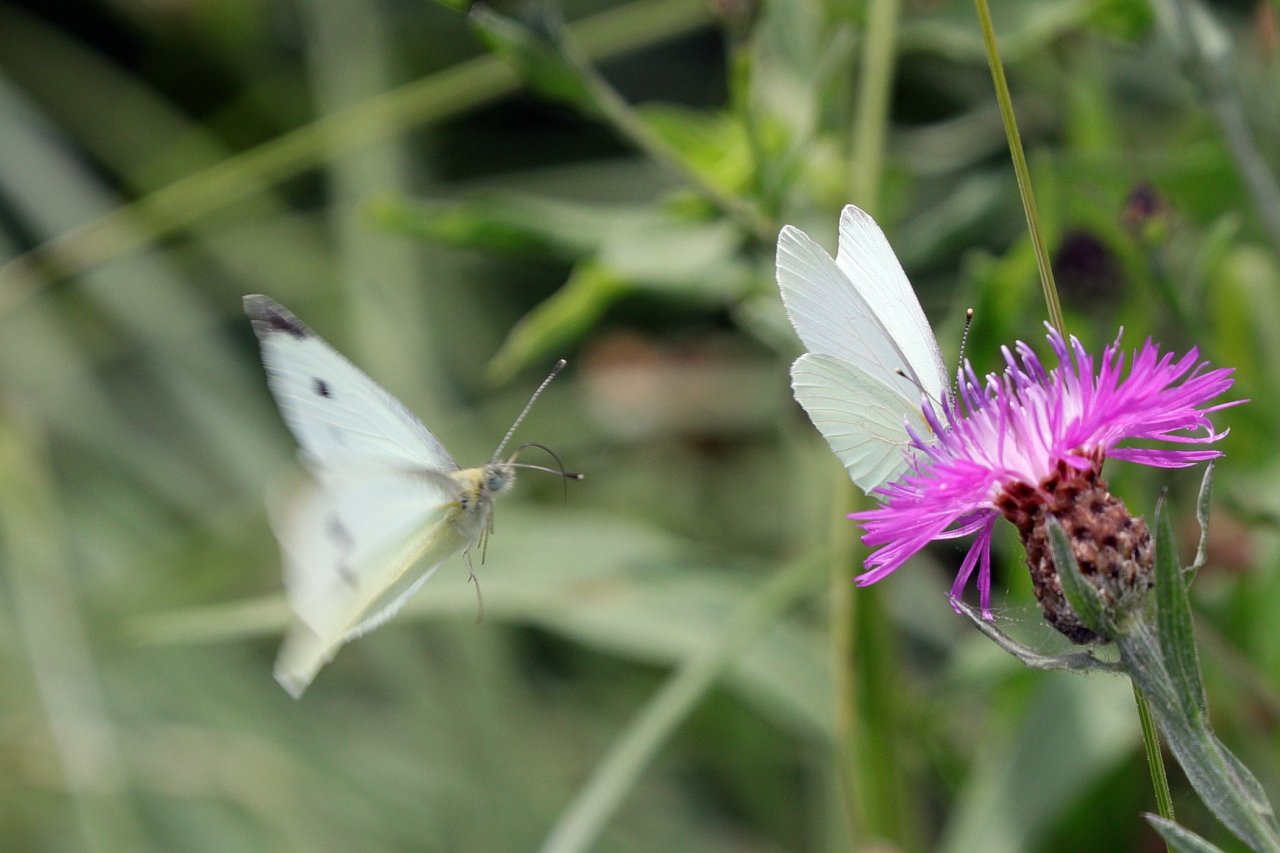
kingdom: Animalia
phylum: Arthropoda
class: Insecta
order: Lepidoptera
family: Pieridae
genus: Pieris
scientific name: Pieris rapae
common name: Cabbage White
